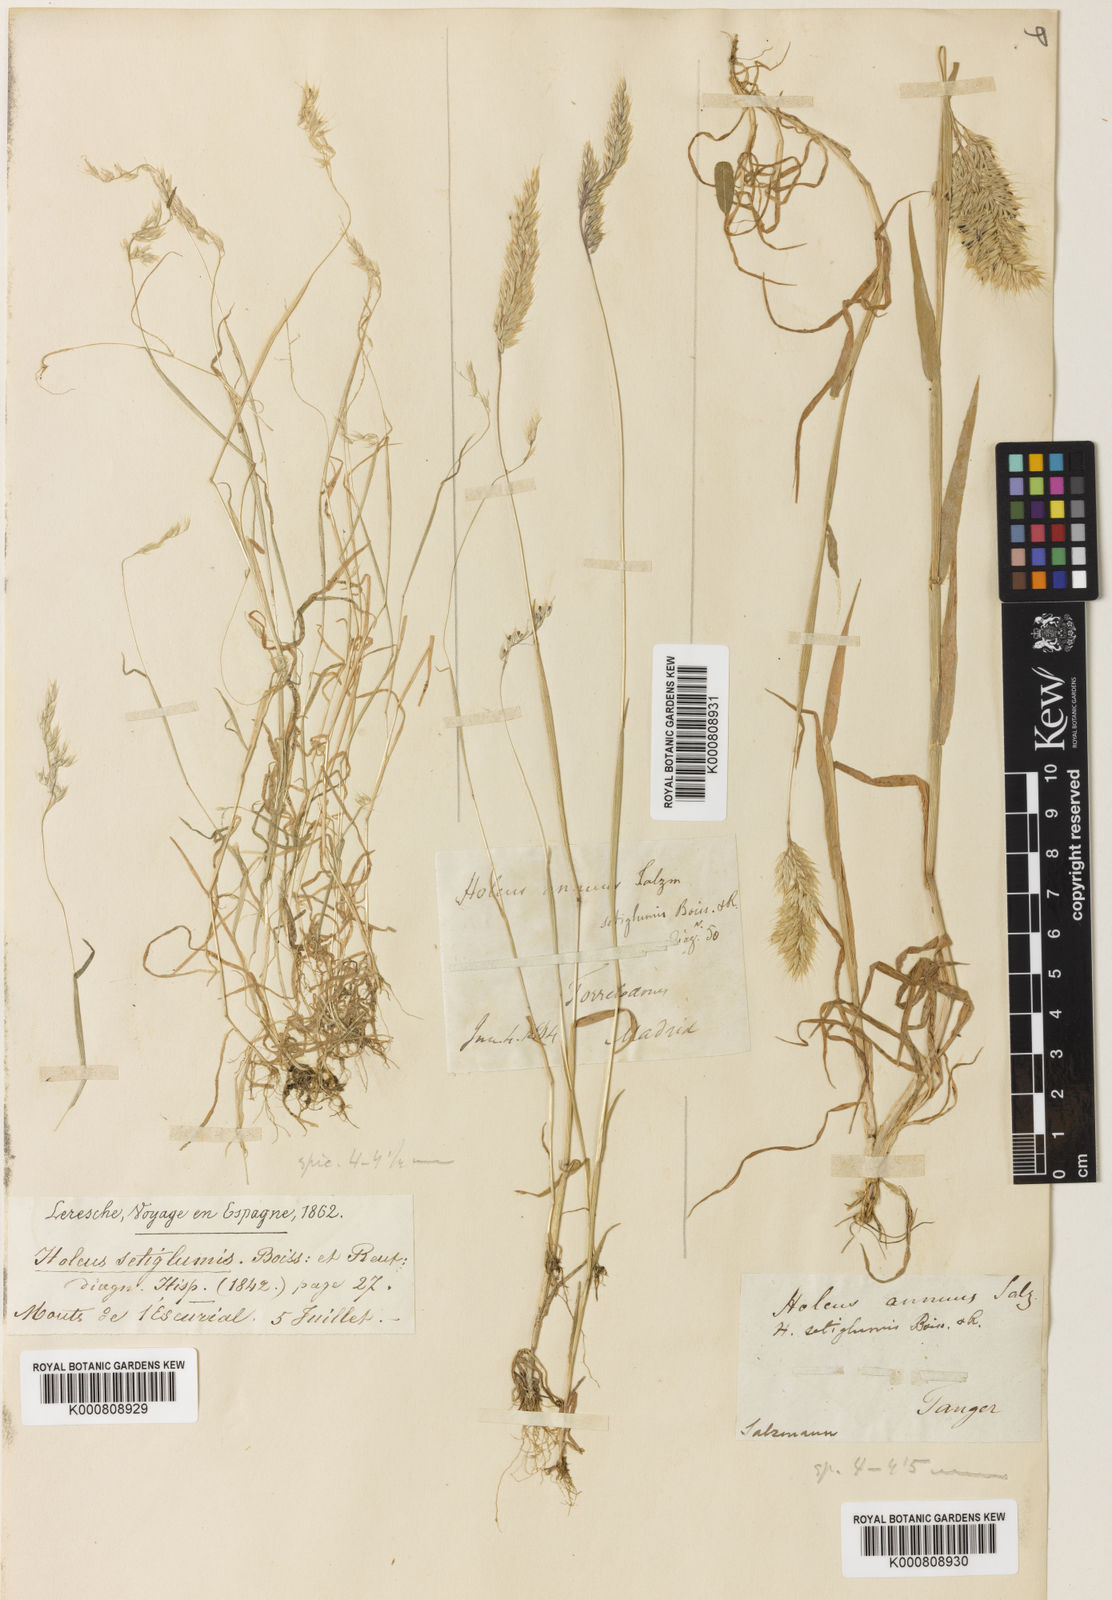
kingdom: Plantae
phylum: Tracheophyta
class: Liliopsida
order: Poales
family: Poaceae
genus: Holcus
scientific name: Holcus annuus
